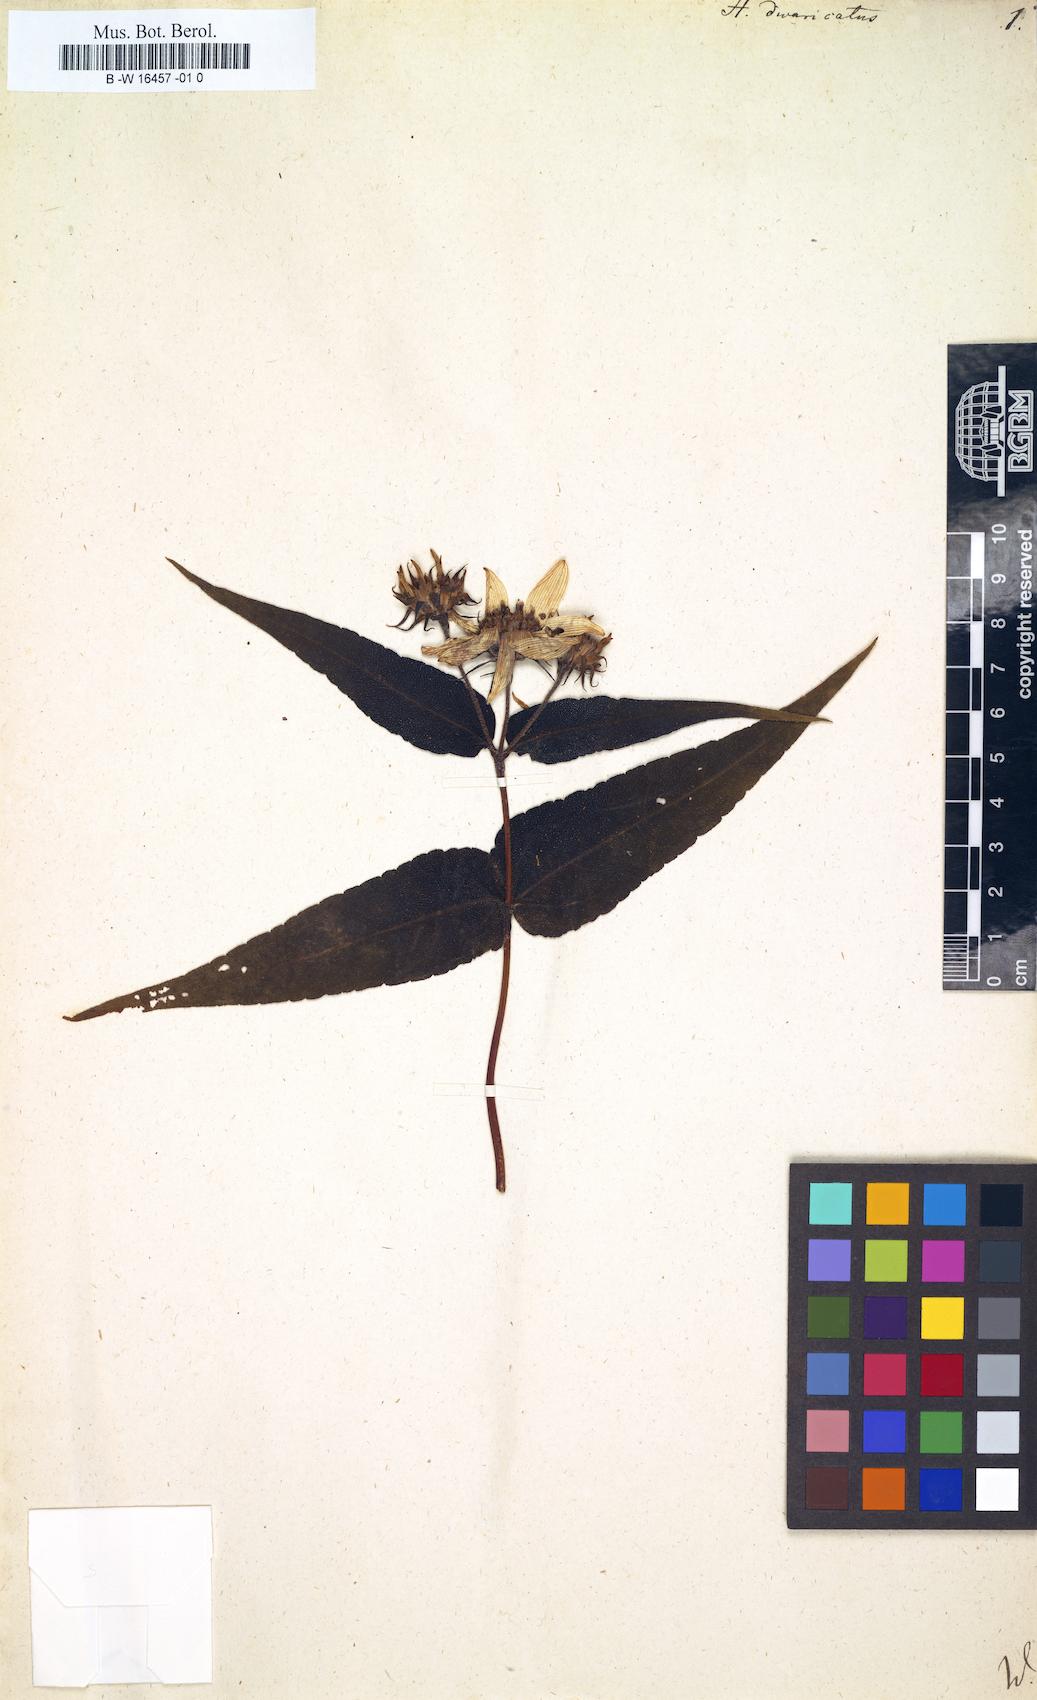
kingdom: Plantae
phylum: Tracheophyta
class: Magnoliopsida
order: Asterales
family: Asteraceae
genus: Helianthus
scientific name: Helianthus divaricatus
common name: Divergent sunflower
